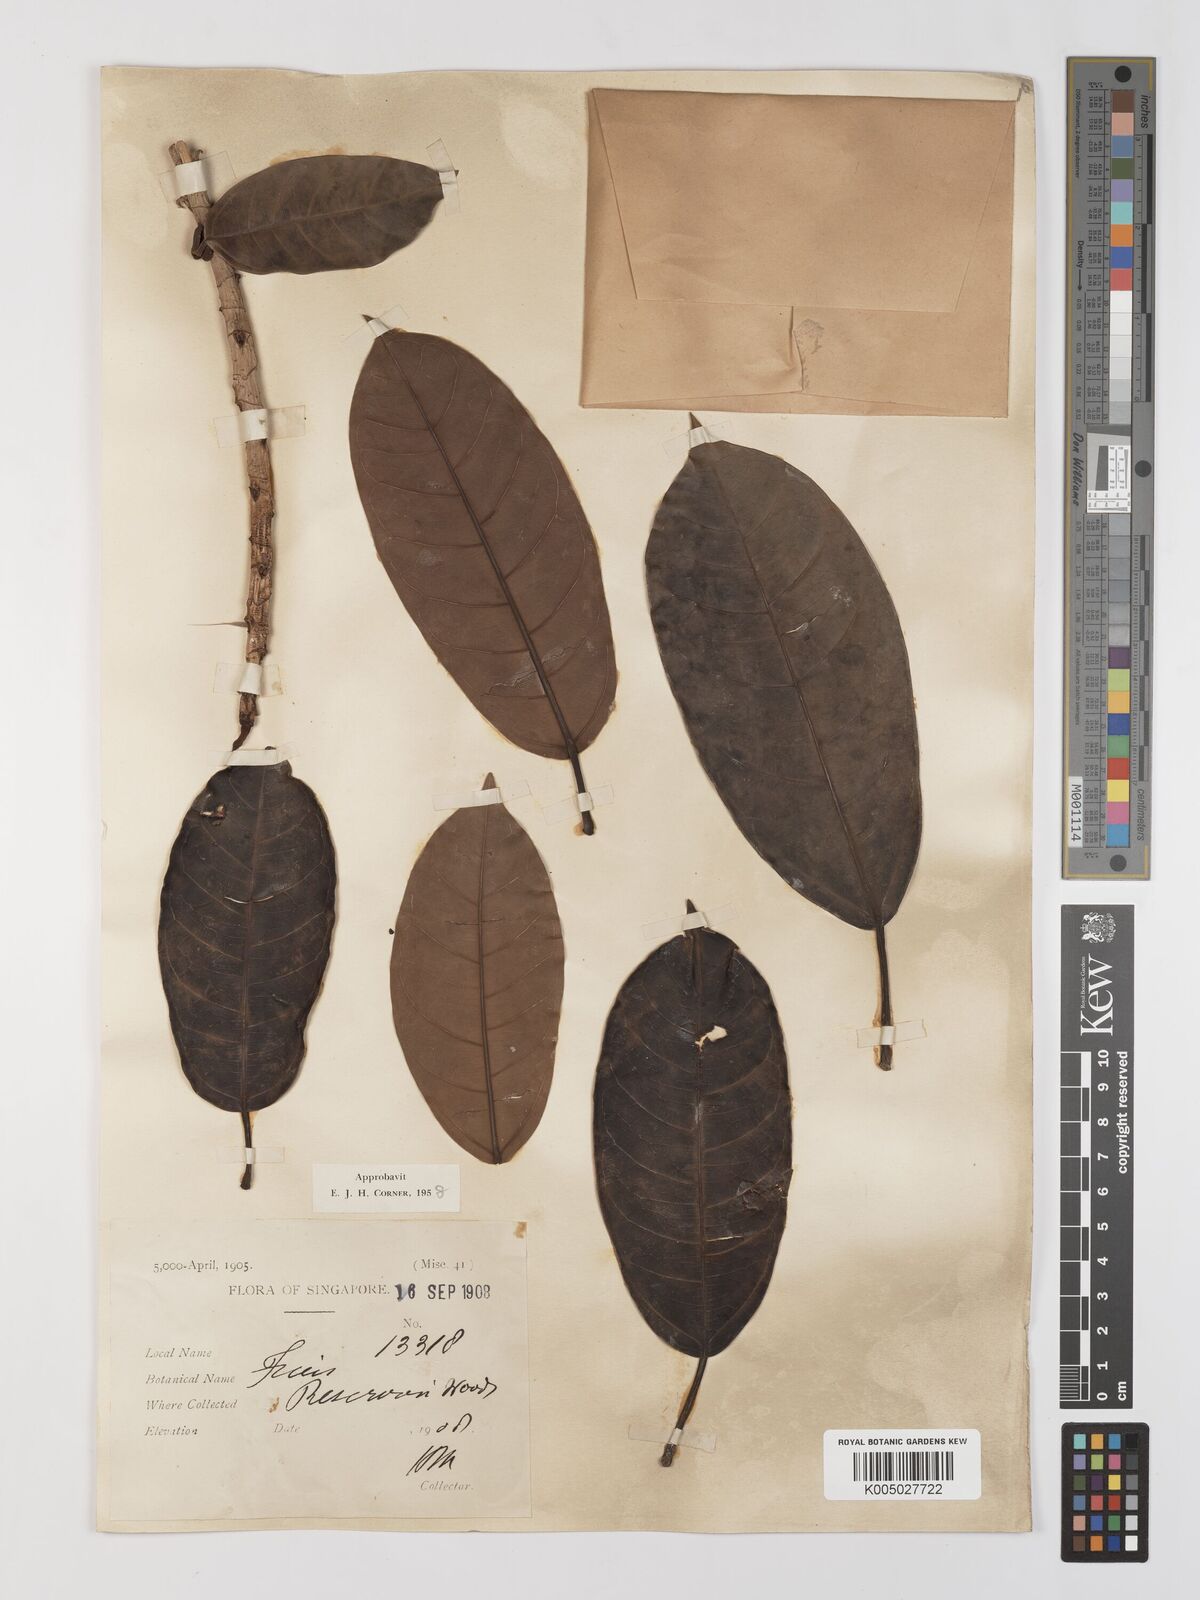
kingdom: Plantae
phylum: Tracheophyta
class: Magnoliopsida
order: Rosales
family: Moraceae
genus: Ficus
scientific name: Ficus
